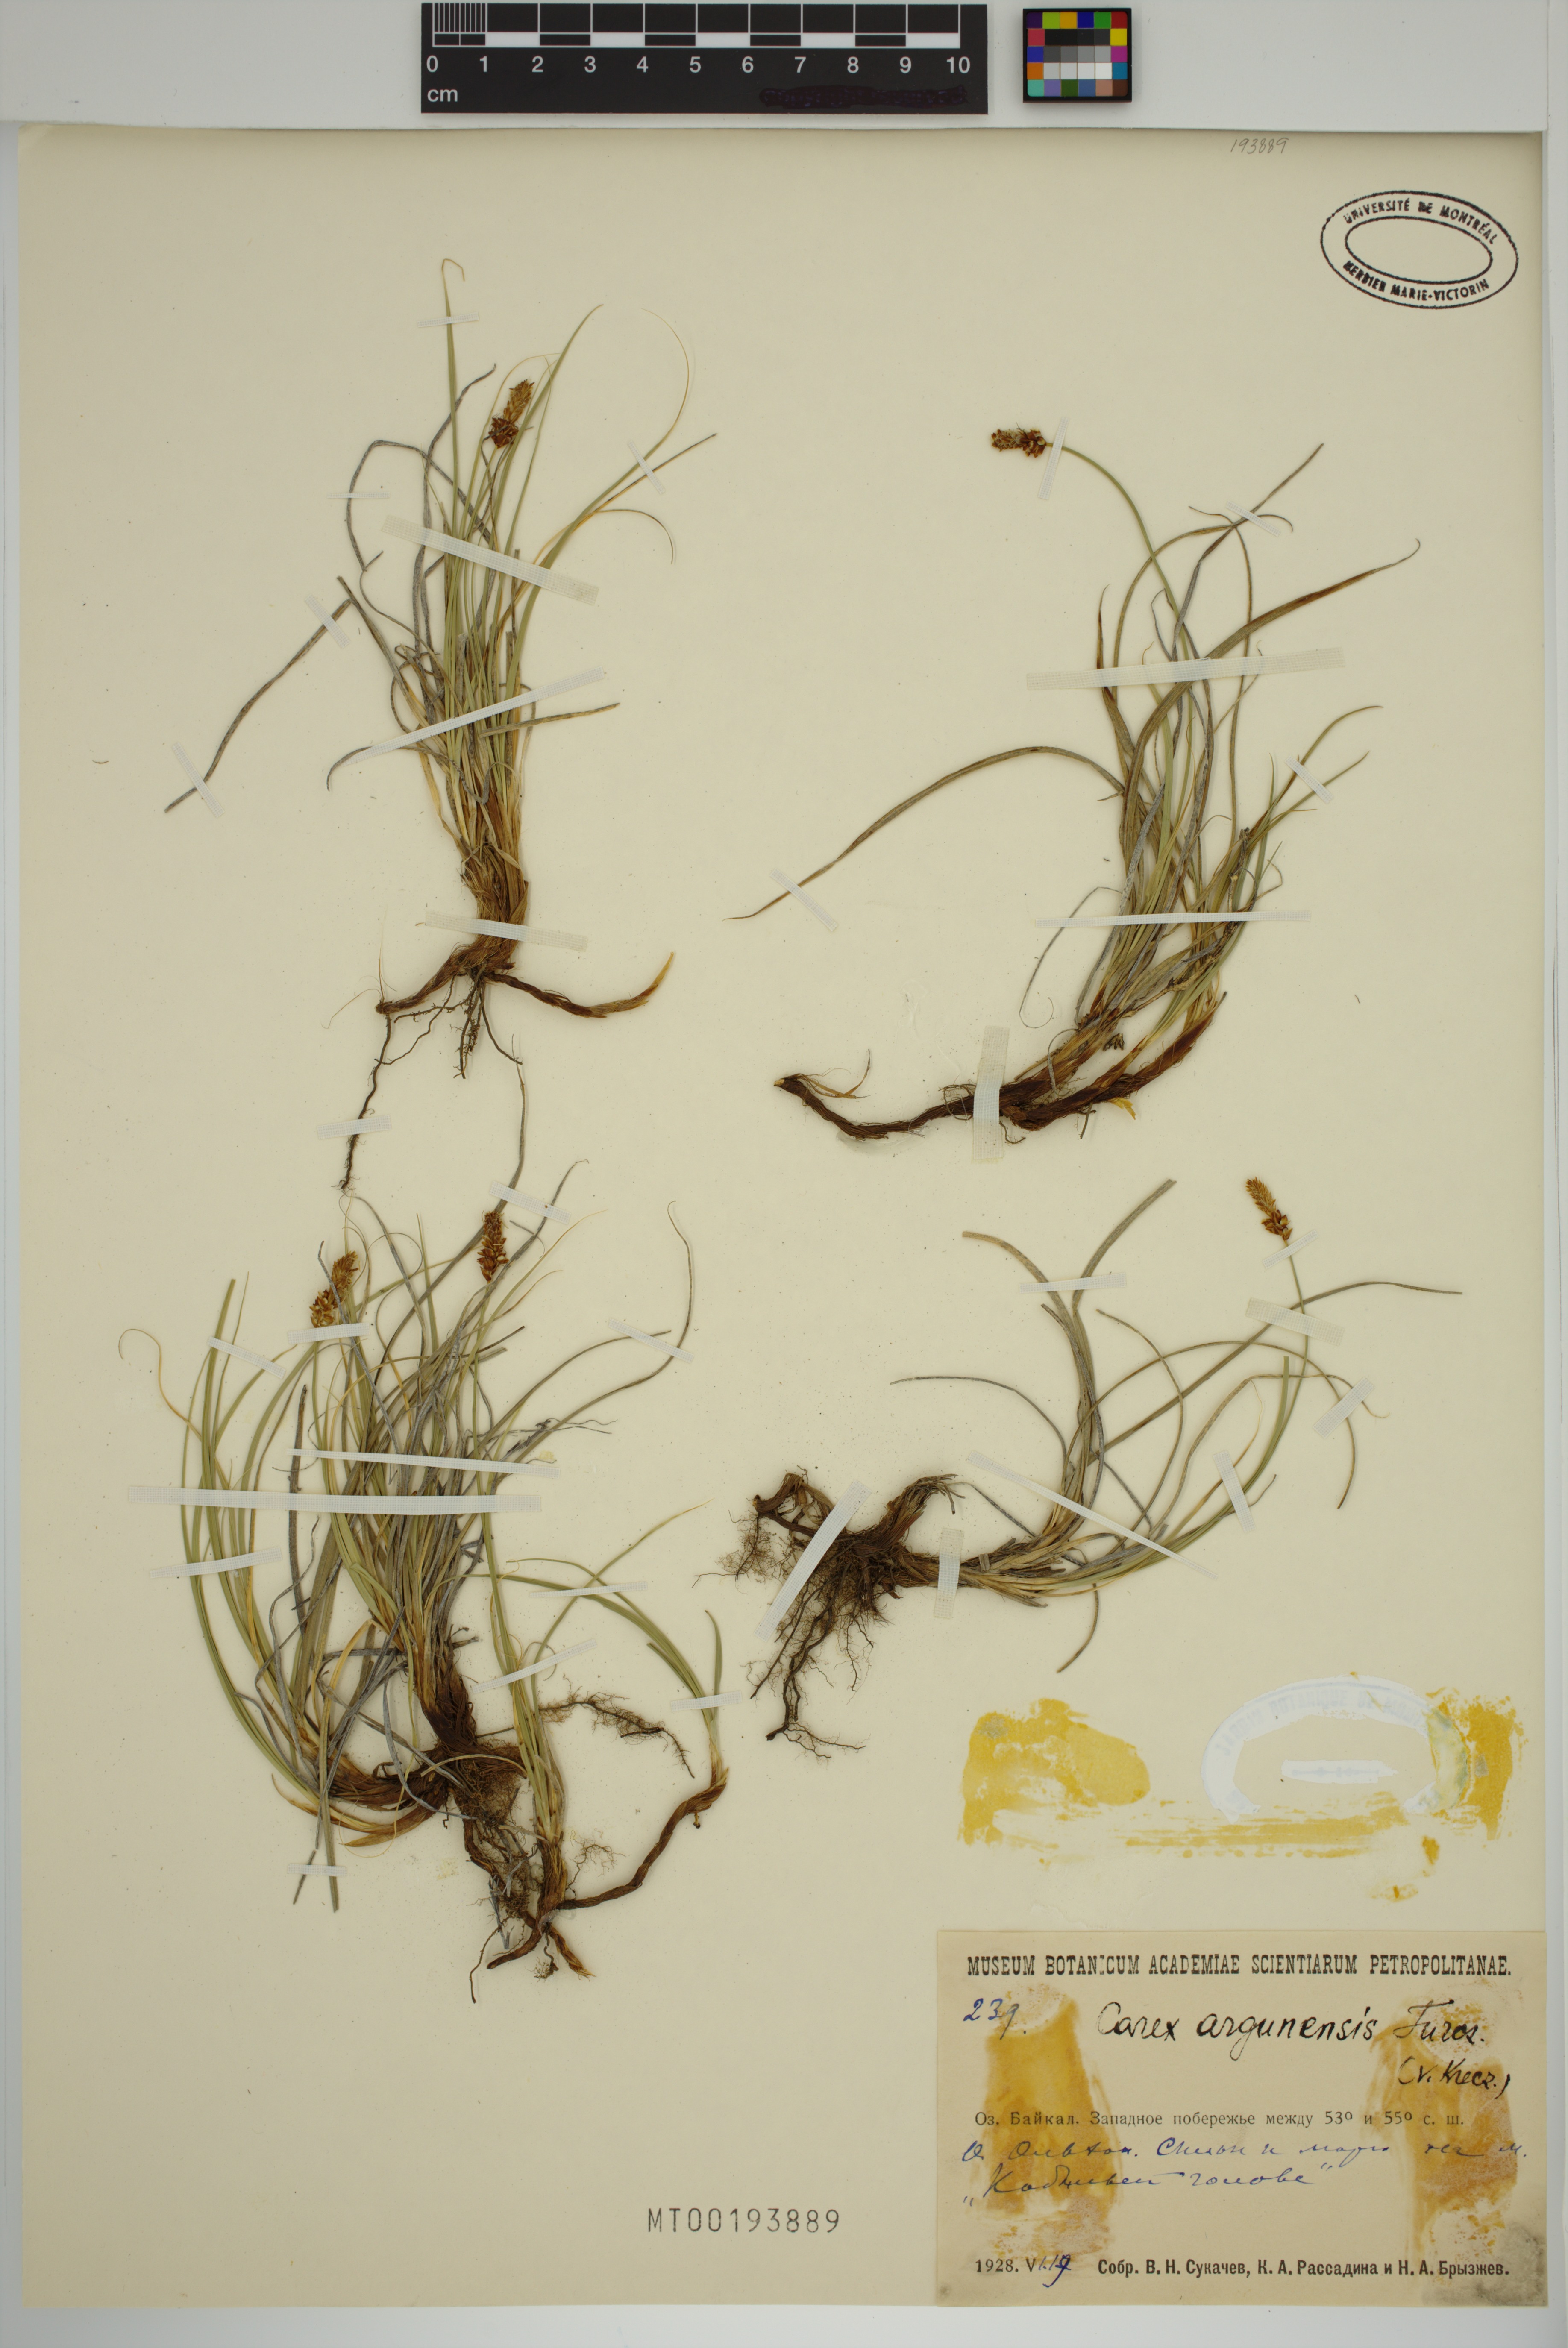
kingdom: Plantae
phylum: Tracheophyta
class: Liliopsida
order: Poales
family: Cyperaceae
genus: Carex
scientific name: Carex argunensis
